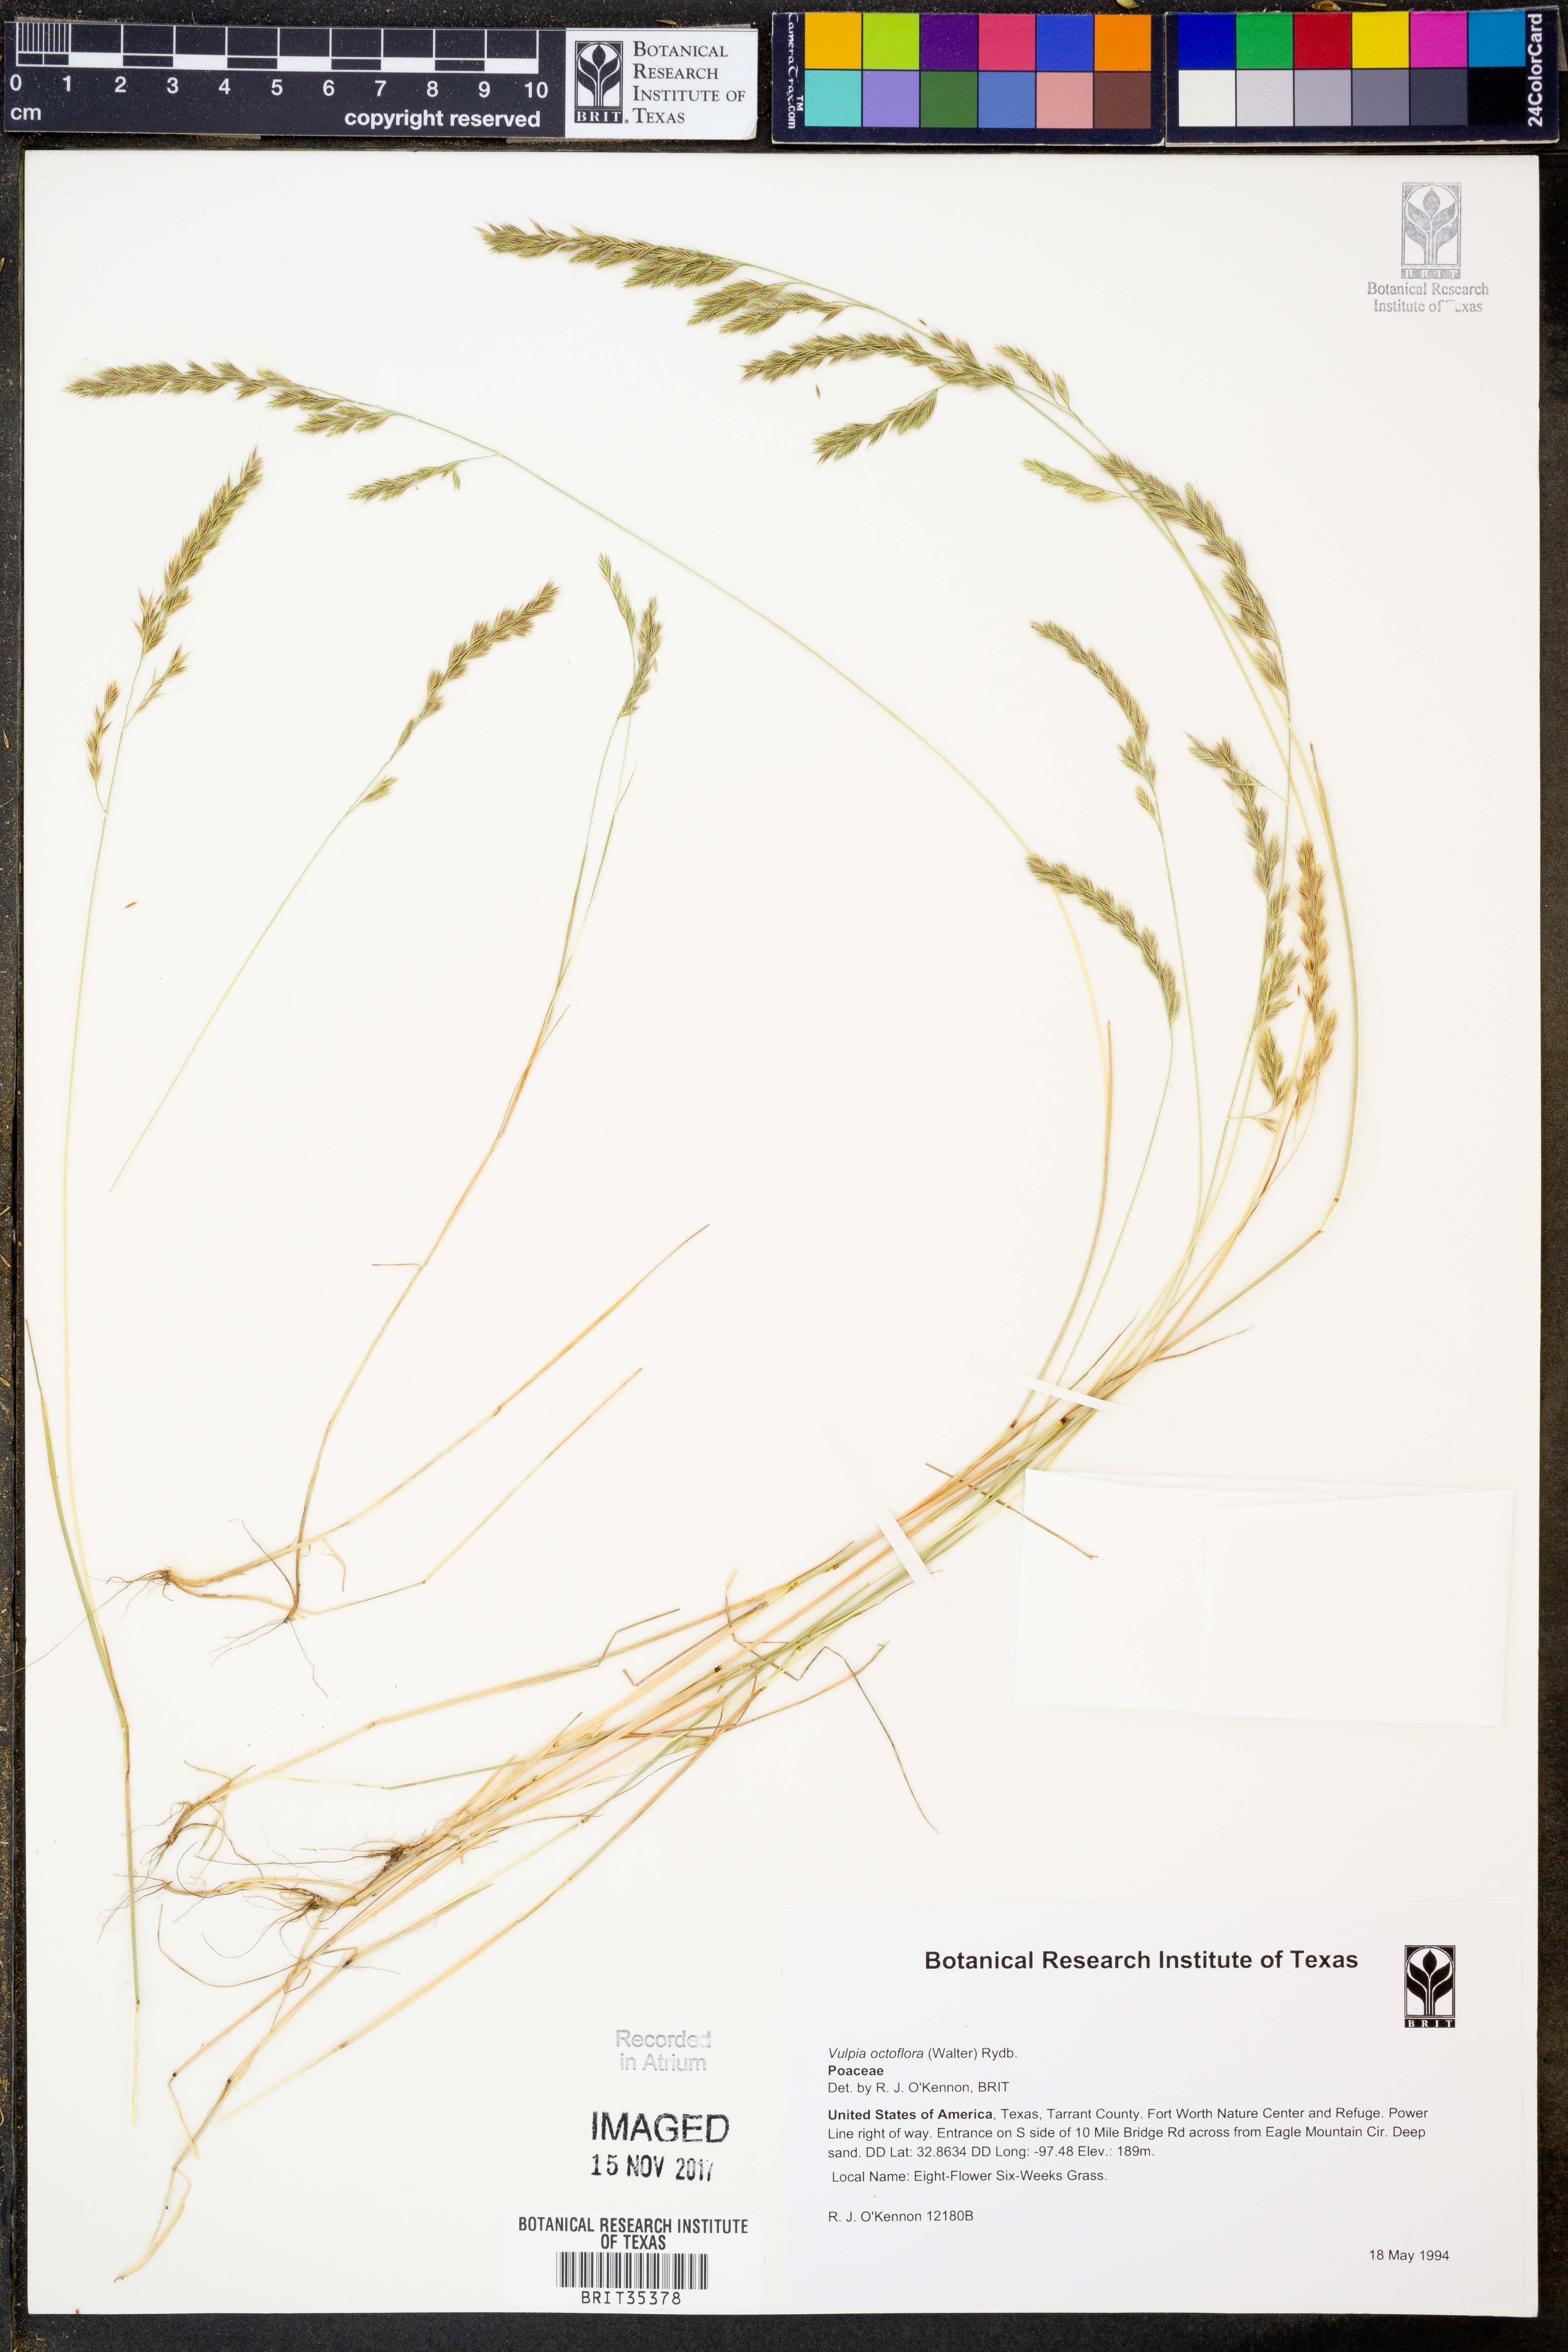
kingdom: Plantae
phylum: Tracheophyta
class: Liliopsida
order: Poales
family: Poaceae
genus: Festuca
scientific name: Festuca octoflora
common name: Sixweeks grass
